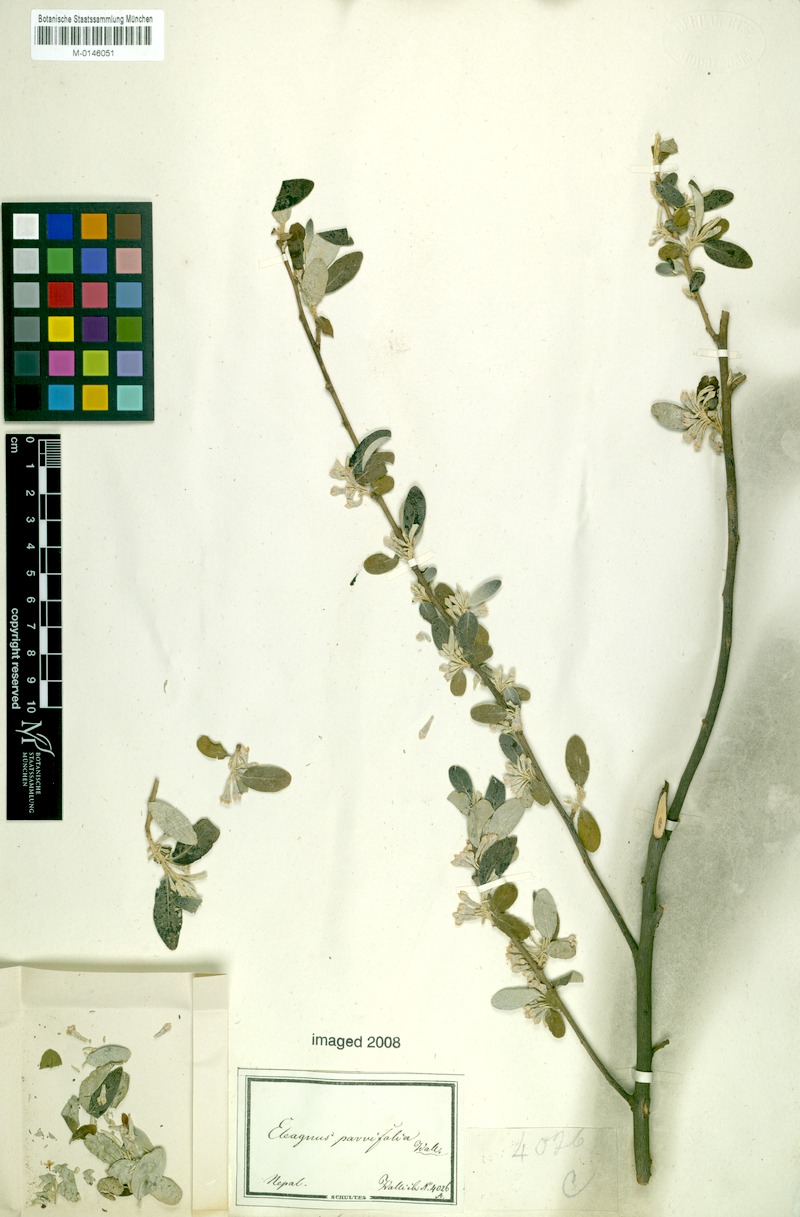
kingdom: Plantae
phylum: Tracheophyta
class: Magnoliopsida
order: Rosales
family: Elaeagnaceae
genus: Elaeagnus
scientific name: Elaeagnus umbellata
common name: Autumn olive
